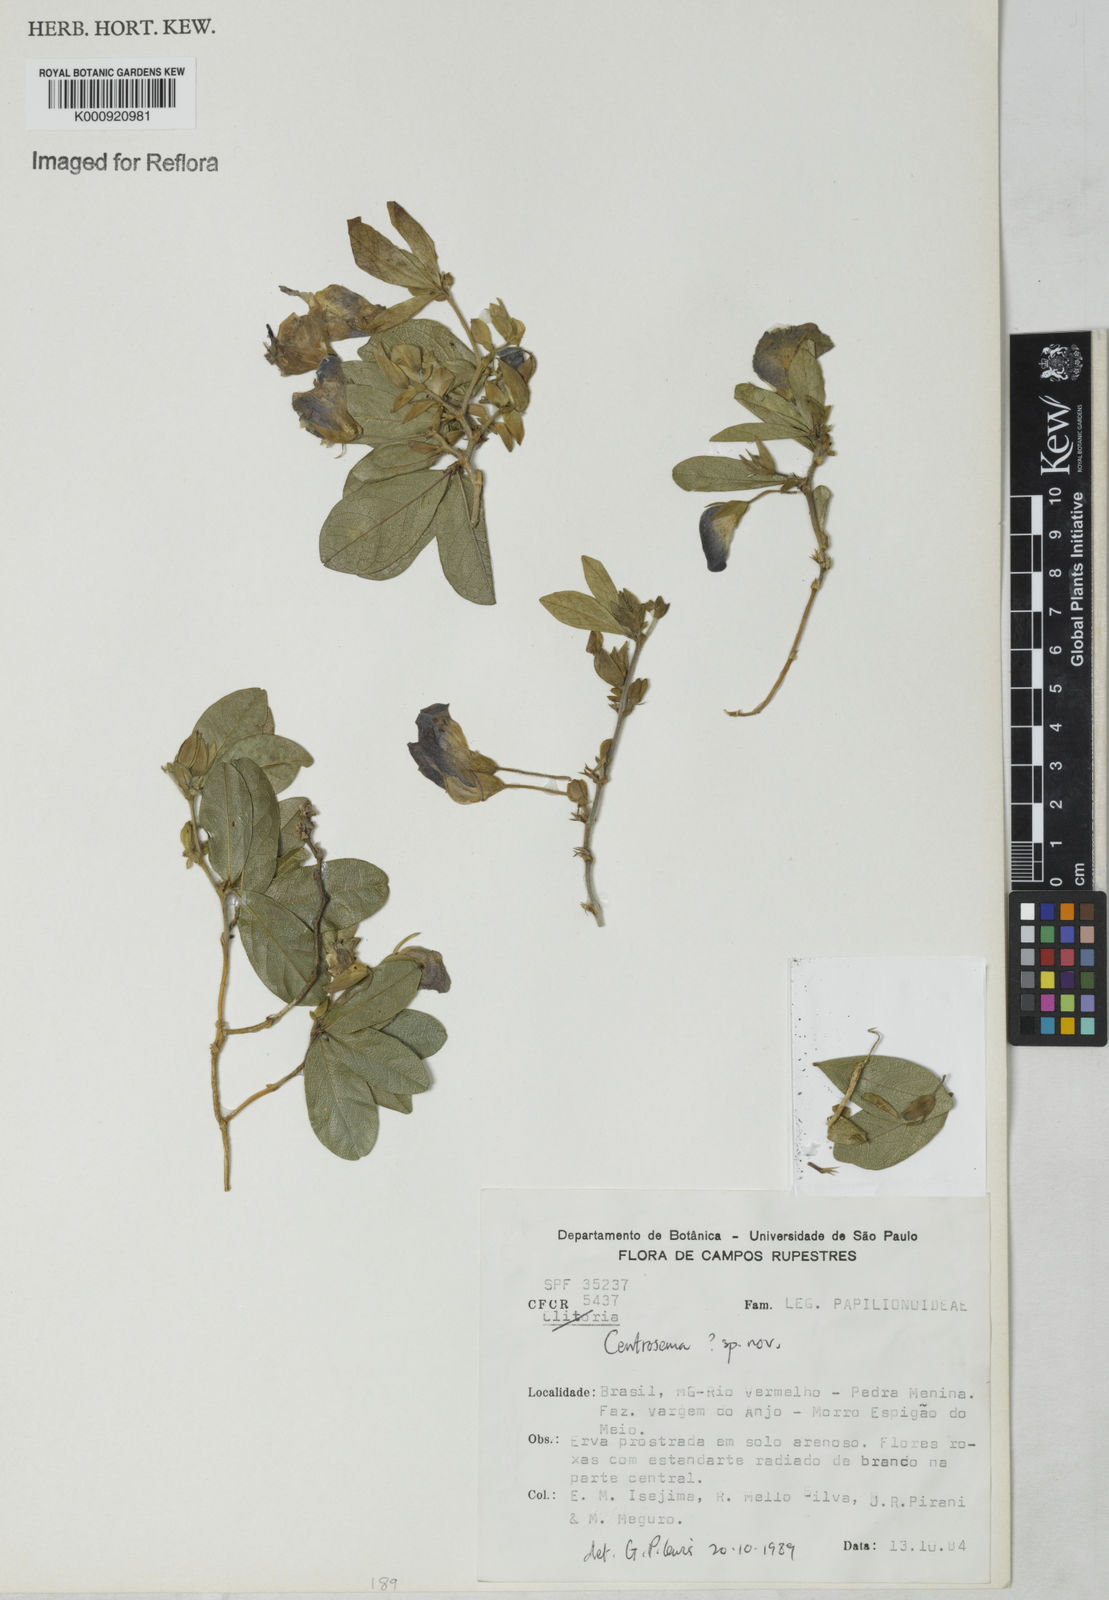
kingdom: Plantae
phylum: Tracheophyta
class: Magnoliopsida
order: Fabales
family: Fabaceae
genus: Centrosema
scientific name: Centrosema
